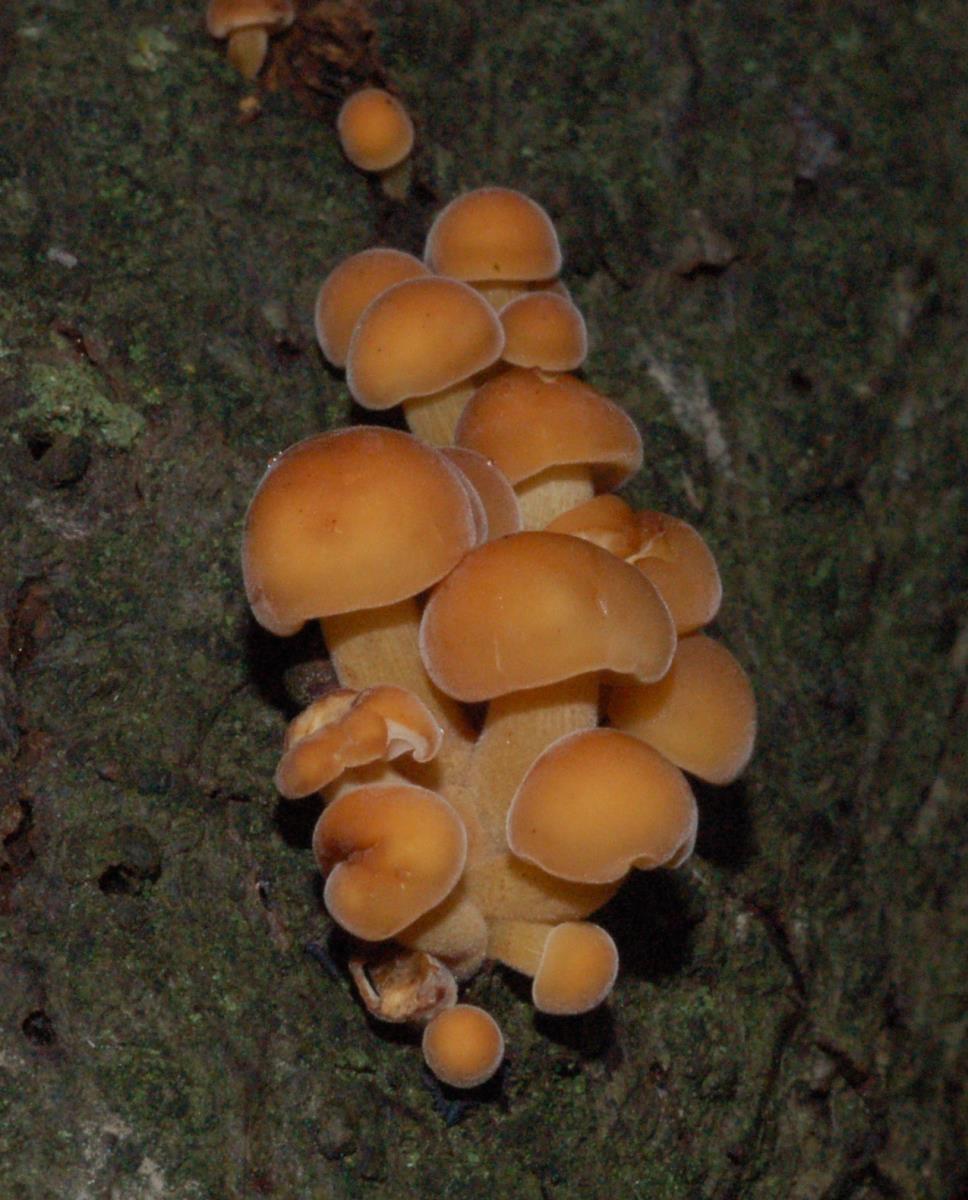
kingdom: Fungi
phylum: Basidiomycota
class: Agaricomycetes
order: Agaricales
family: Physalacriaceae
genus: Flammulina
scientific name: Flammulina velutipes
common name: Velvet shank
